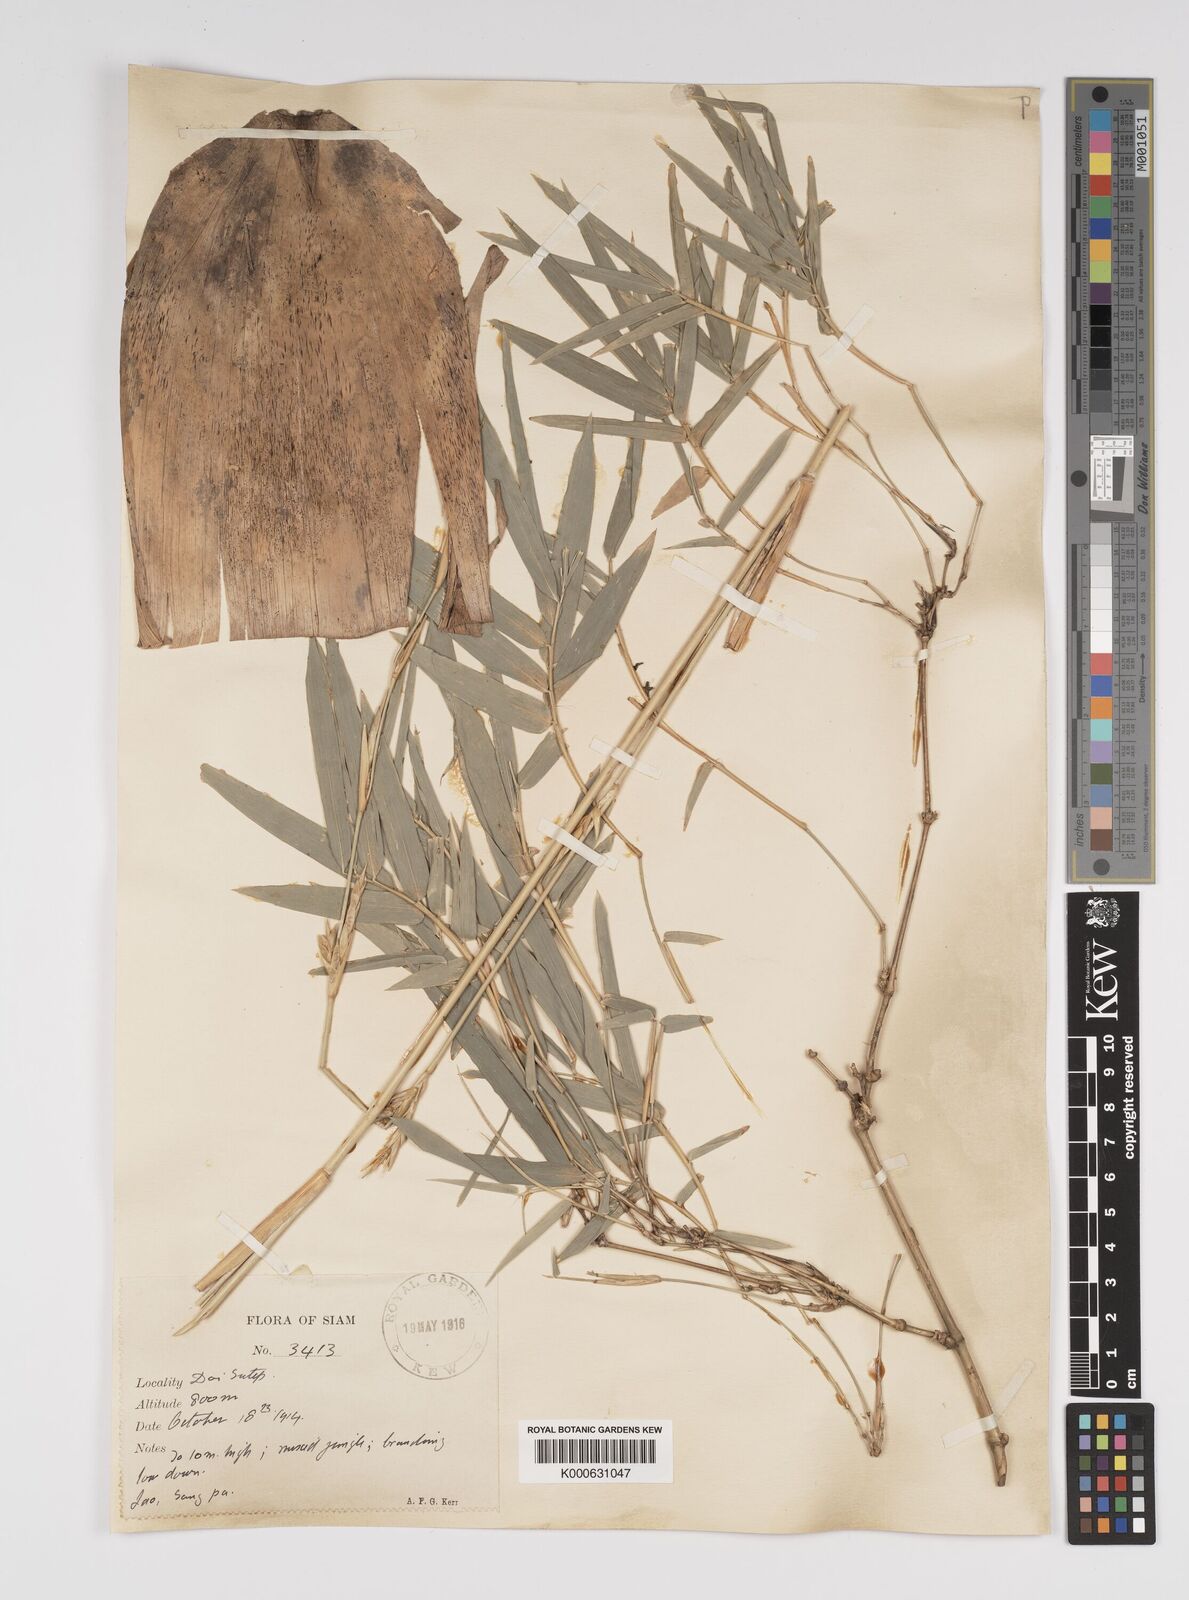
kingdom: Plantae
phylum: Tracheophyta
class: Liliopsida
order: Poales
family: Poaceae
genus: Bambusa
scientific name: Bambusa
